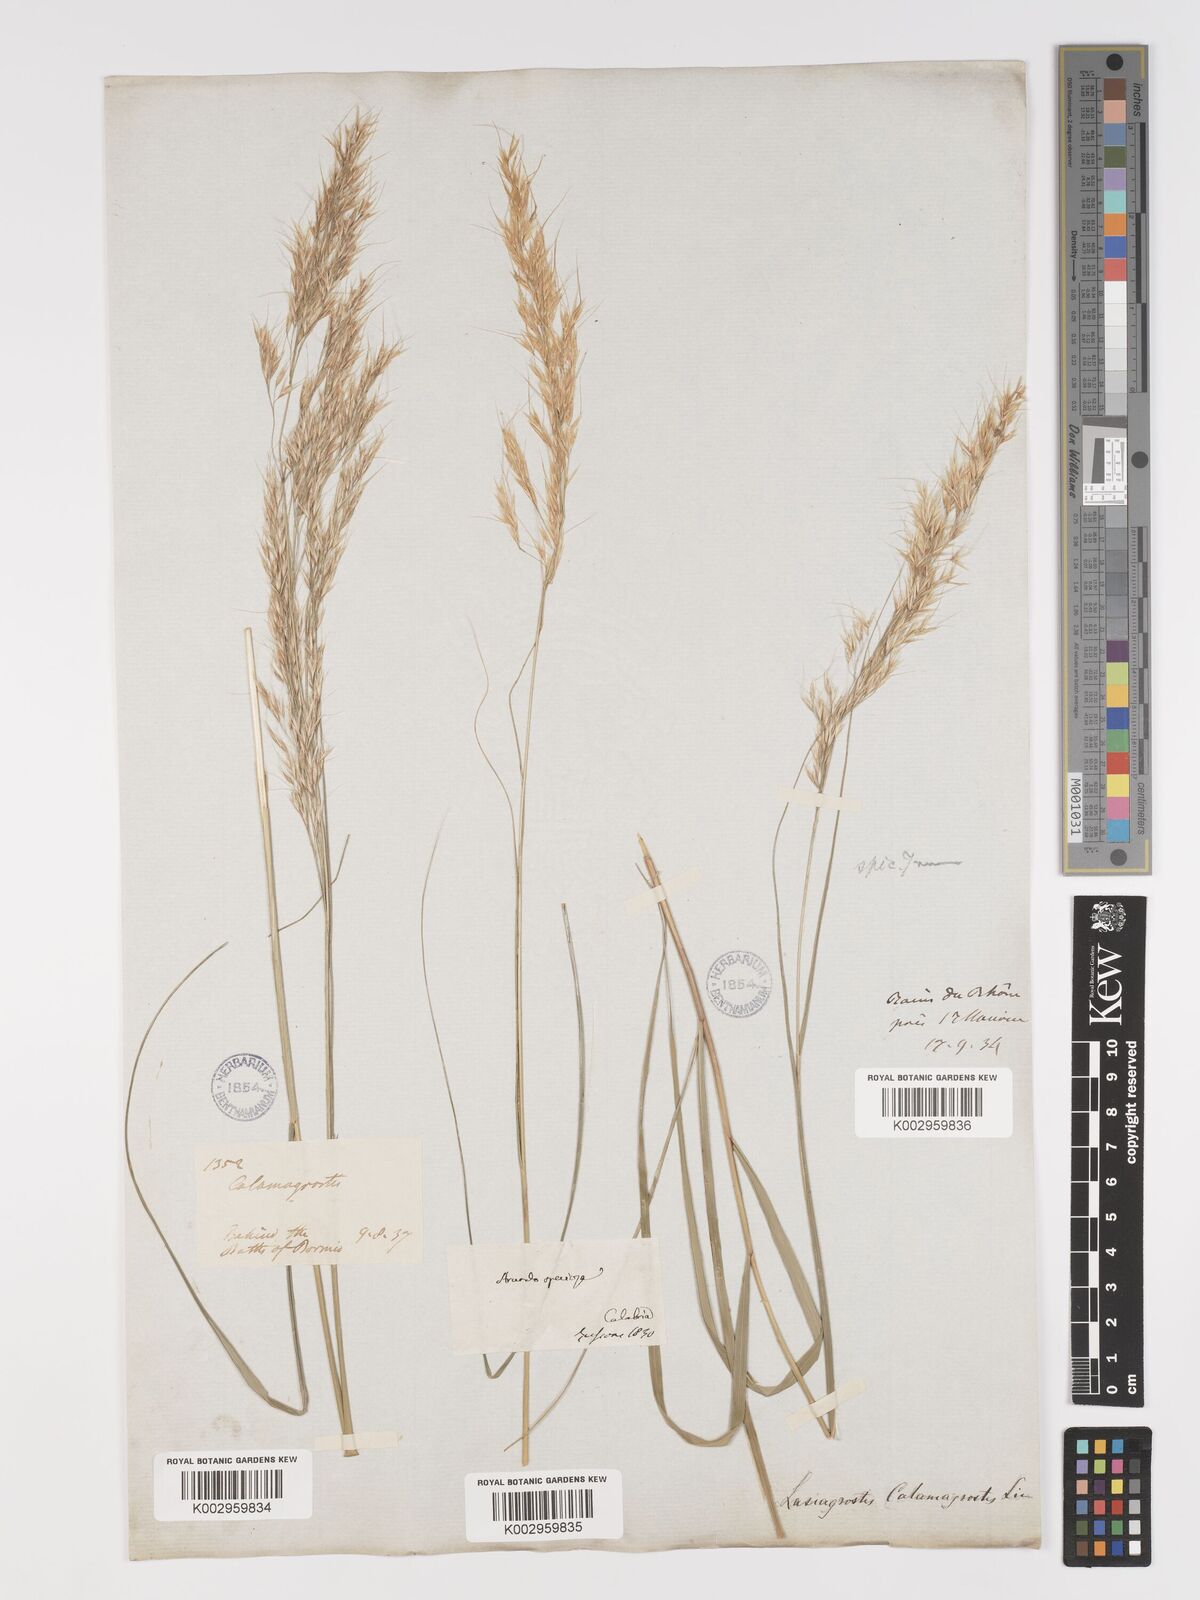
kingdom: Plantae
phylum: Tracheophyta
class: Liliopsida
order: Poales
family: Poaceae
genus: Achnatherum
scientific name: Achnatherum calamagrostis
